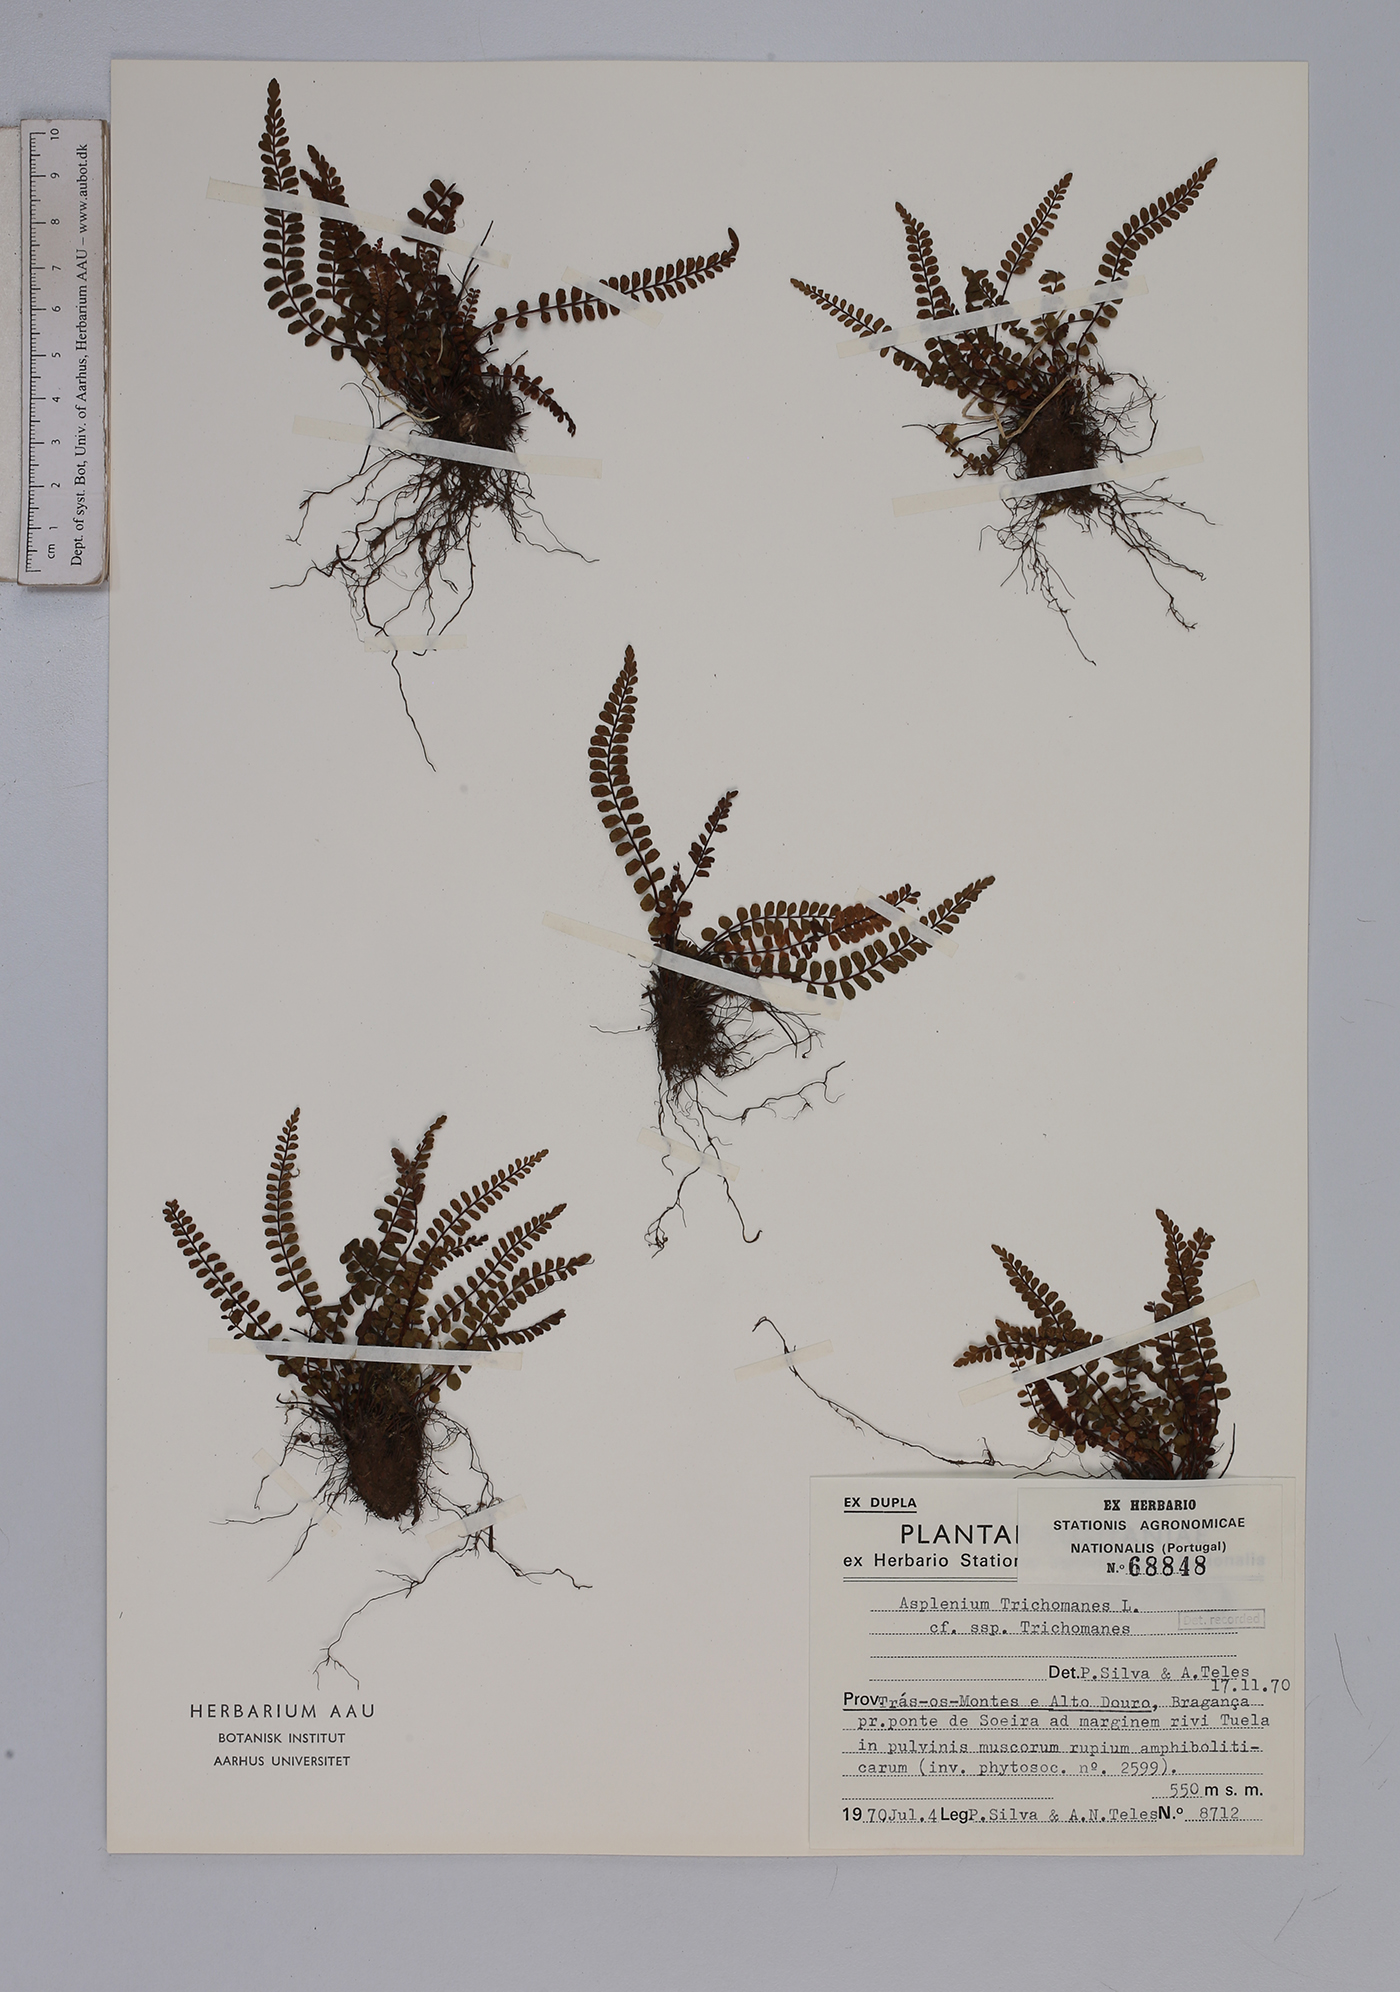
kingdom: Plantae
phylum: Tracheophyta
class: Polypodiopsida
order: Polypodiales
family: Aspleniaceae
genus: Asplenium
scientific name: Asplenium trichomanes
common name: Maidenhair spleenwort
